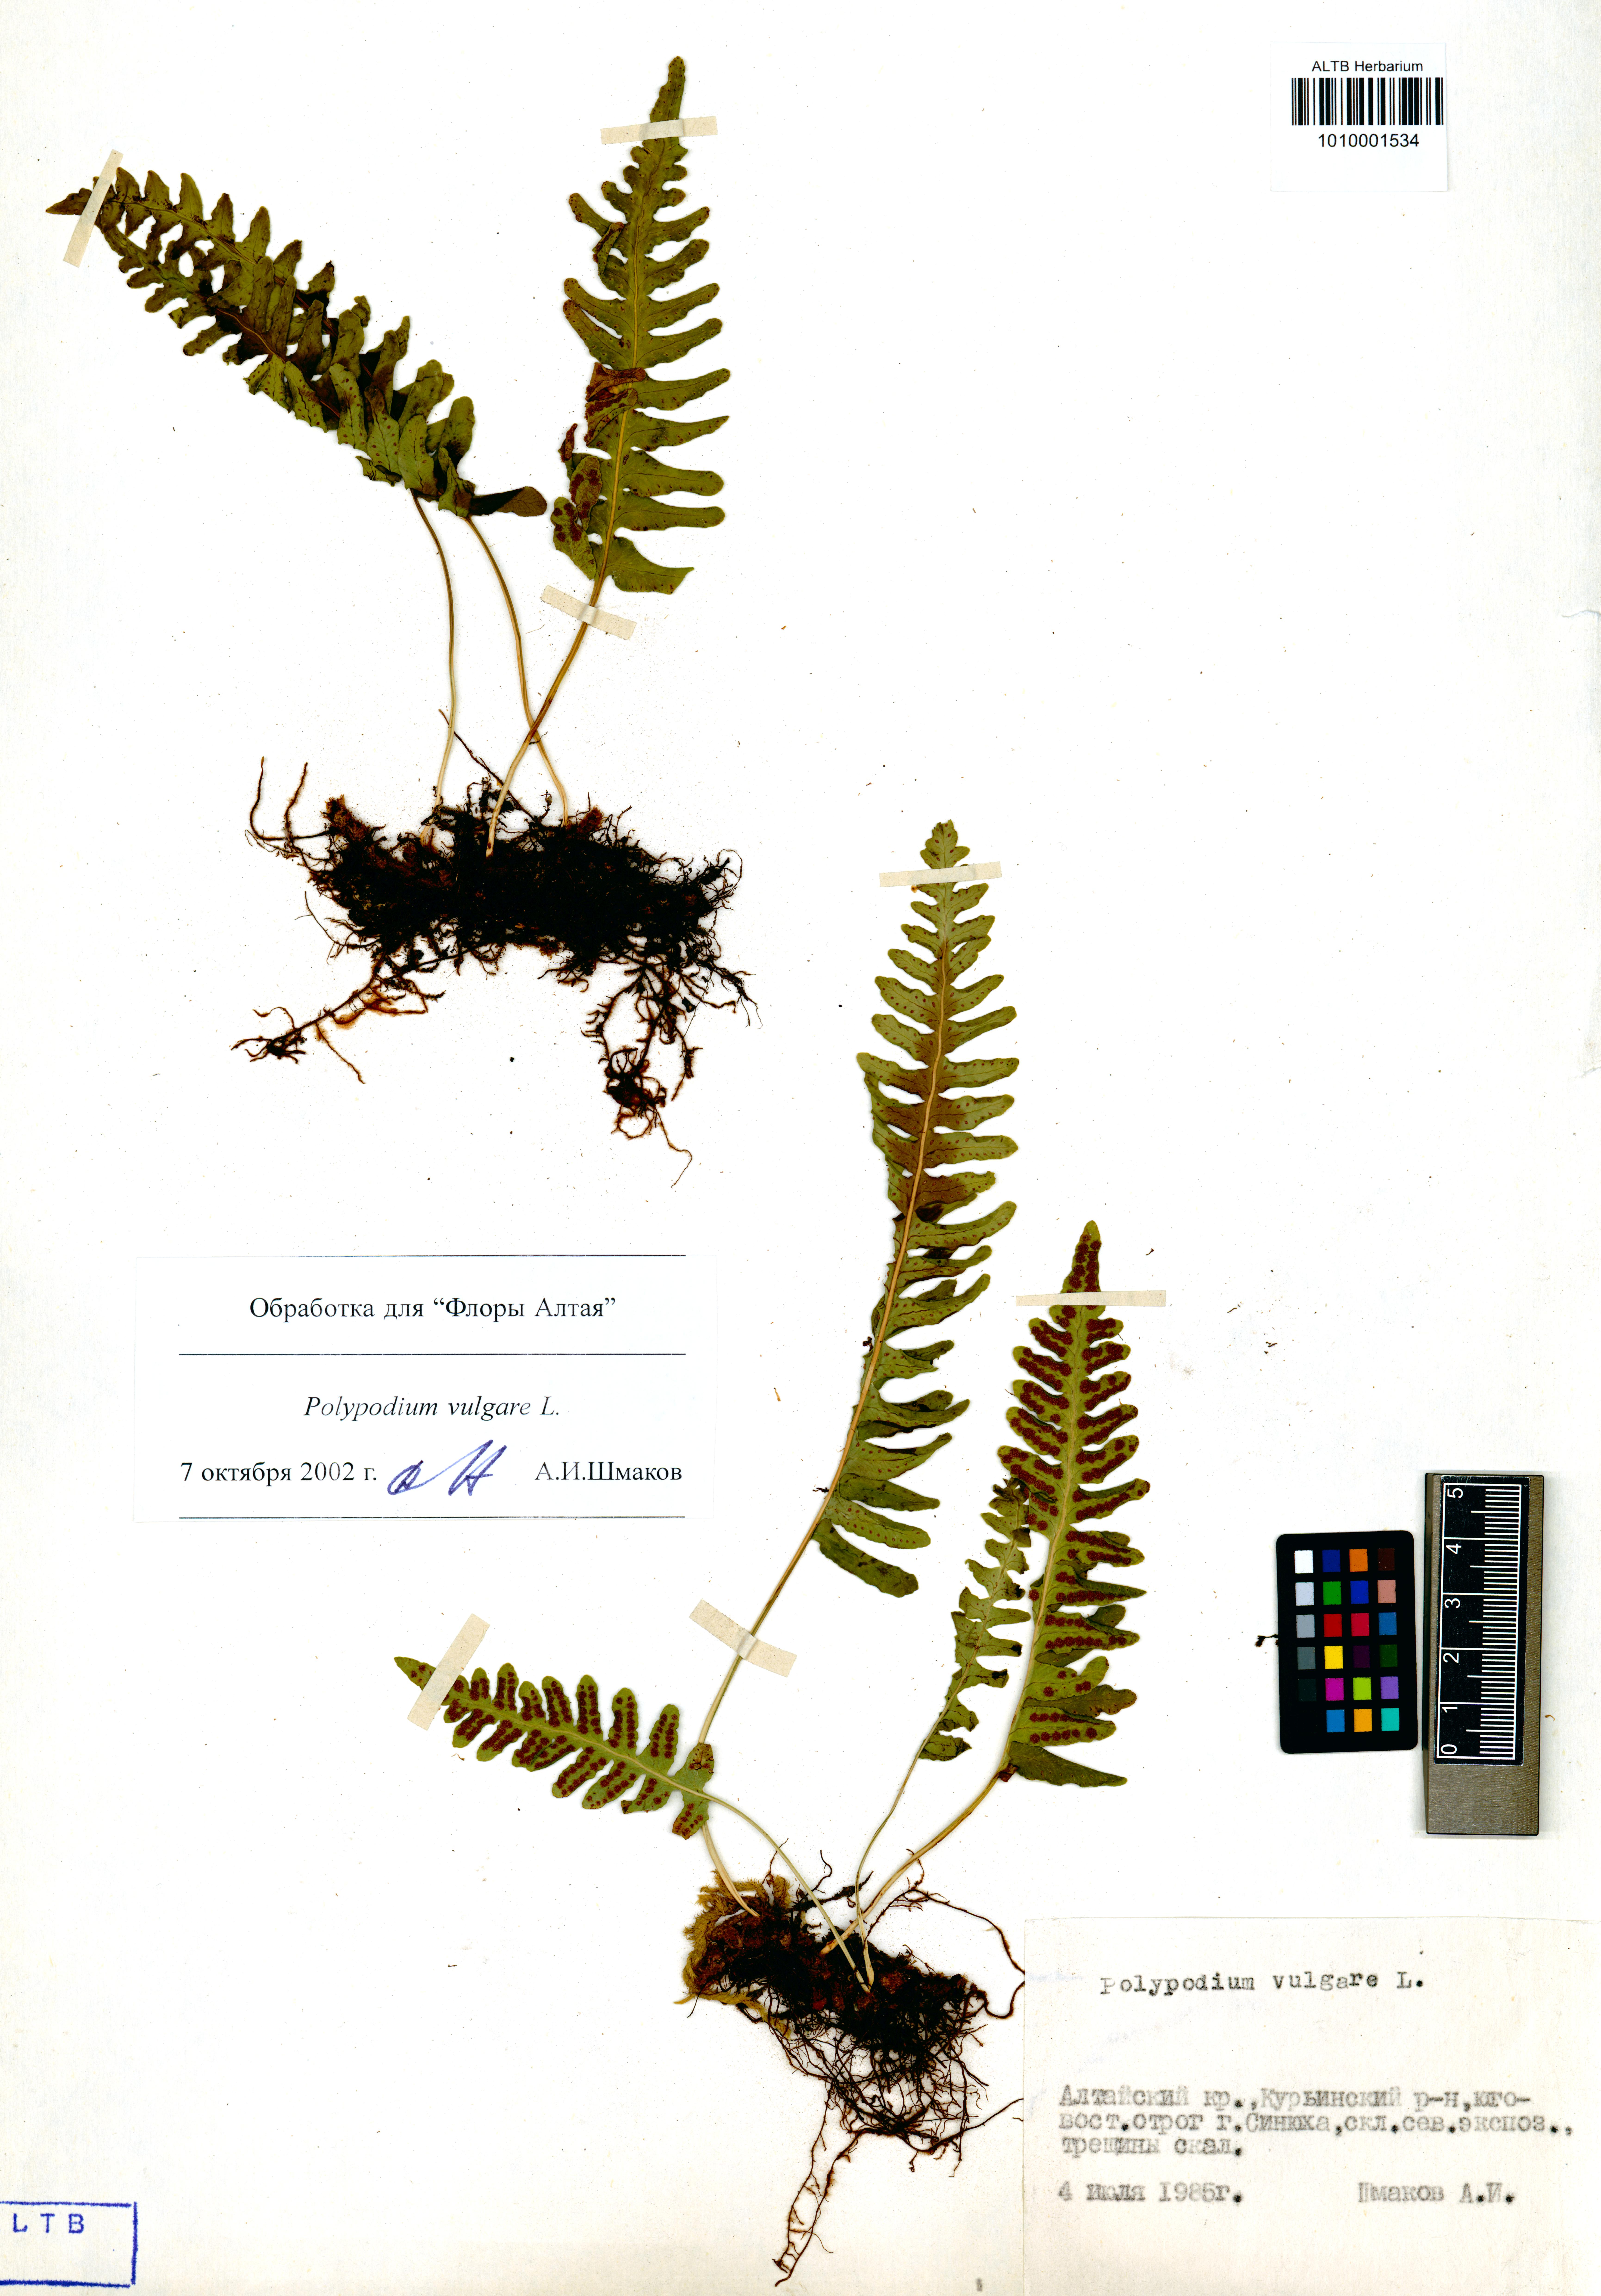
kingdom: Plantae
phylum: Tracheophyta
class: Polypodiopsida
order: Polypodiales
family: Polypodiaceae
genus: Polypodium
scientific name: Polypodium vulgare
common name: Common polypody
